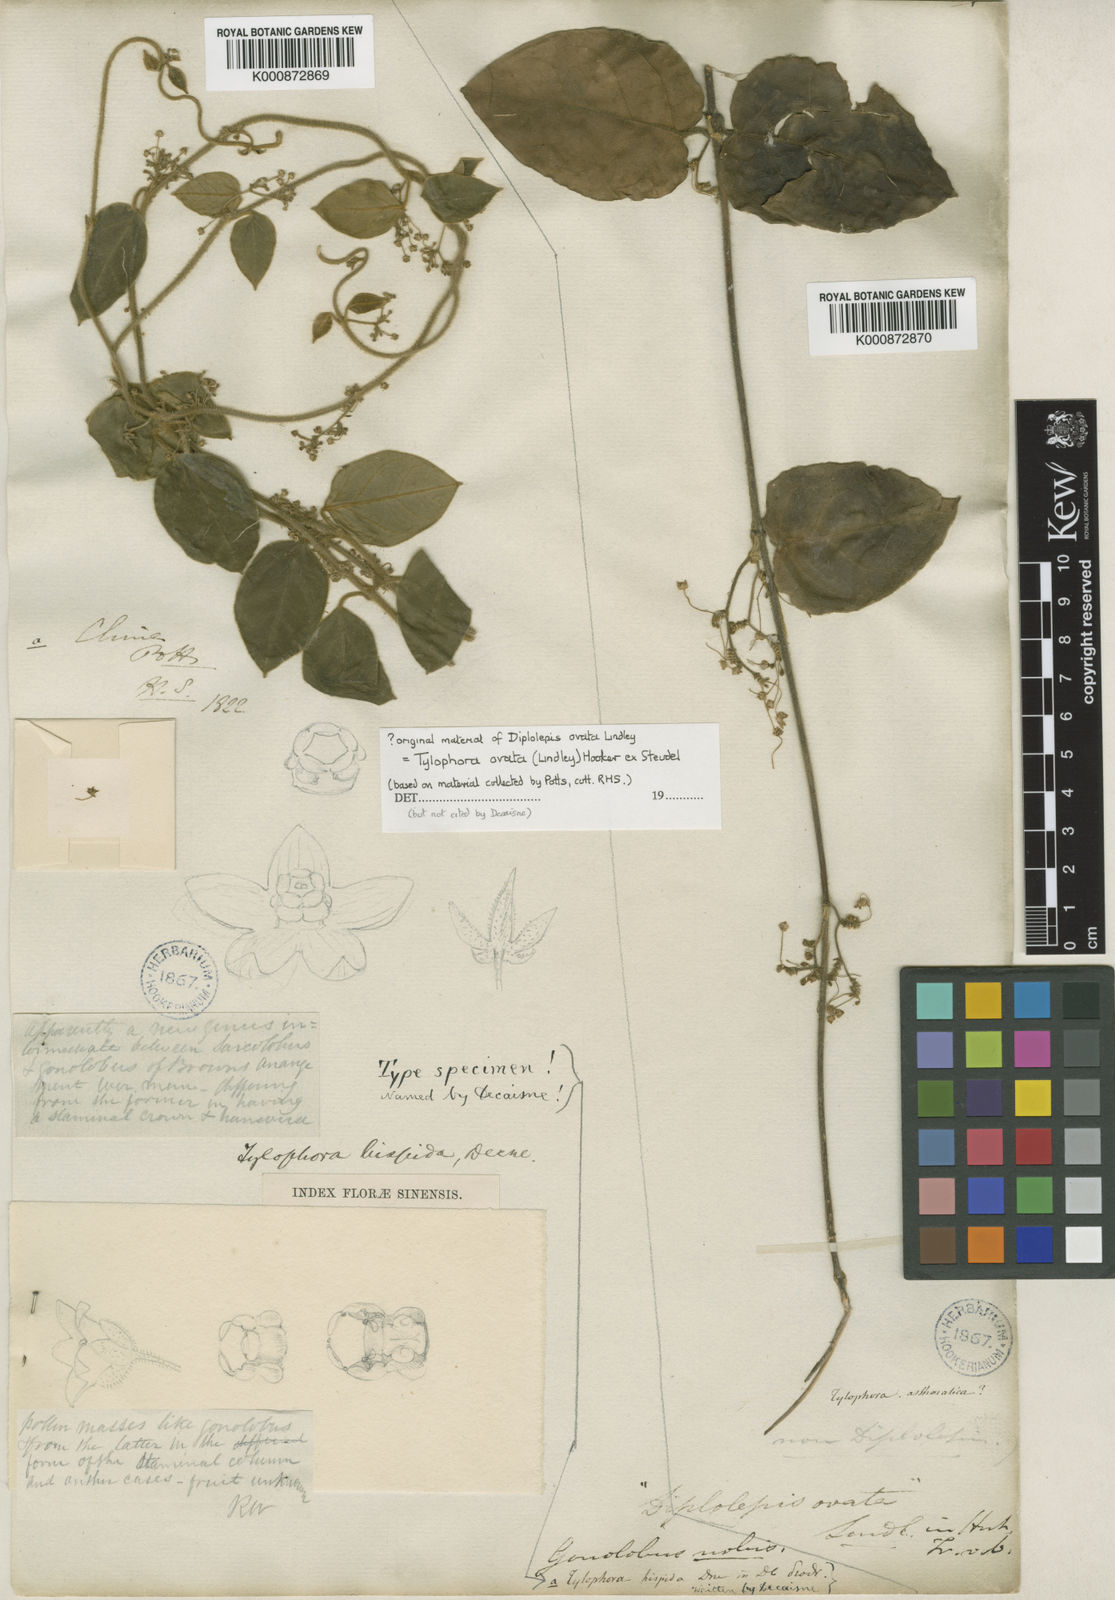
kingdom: Plantae
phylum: Tracheophyta
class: Magnoliopsida
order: Gentianales
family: Apocynaceae
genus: Vincetoxicum
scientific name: Vincetoxicum hirsutum
